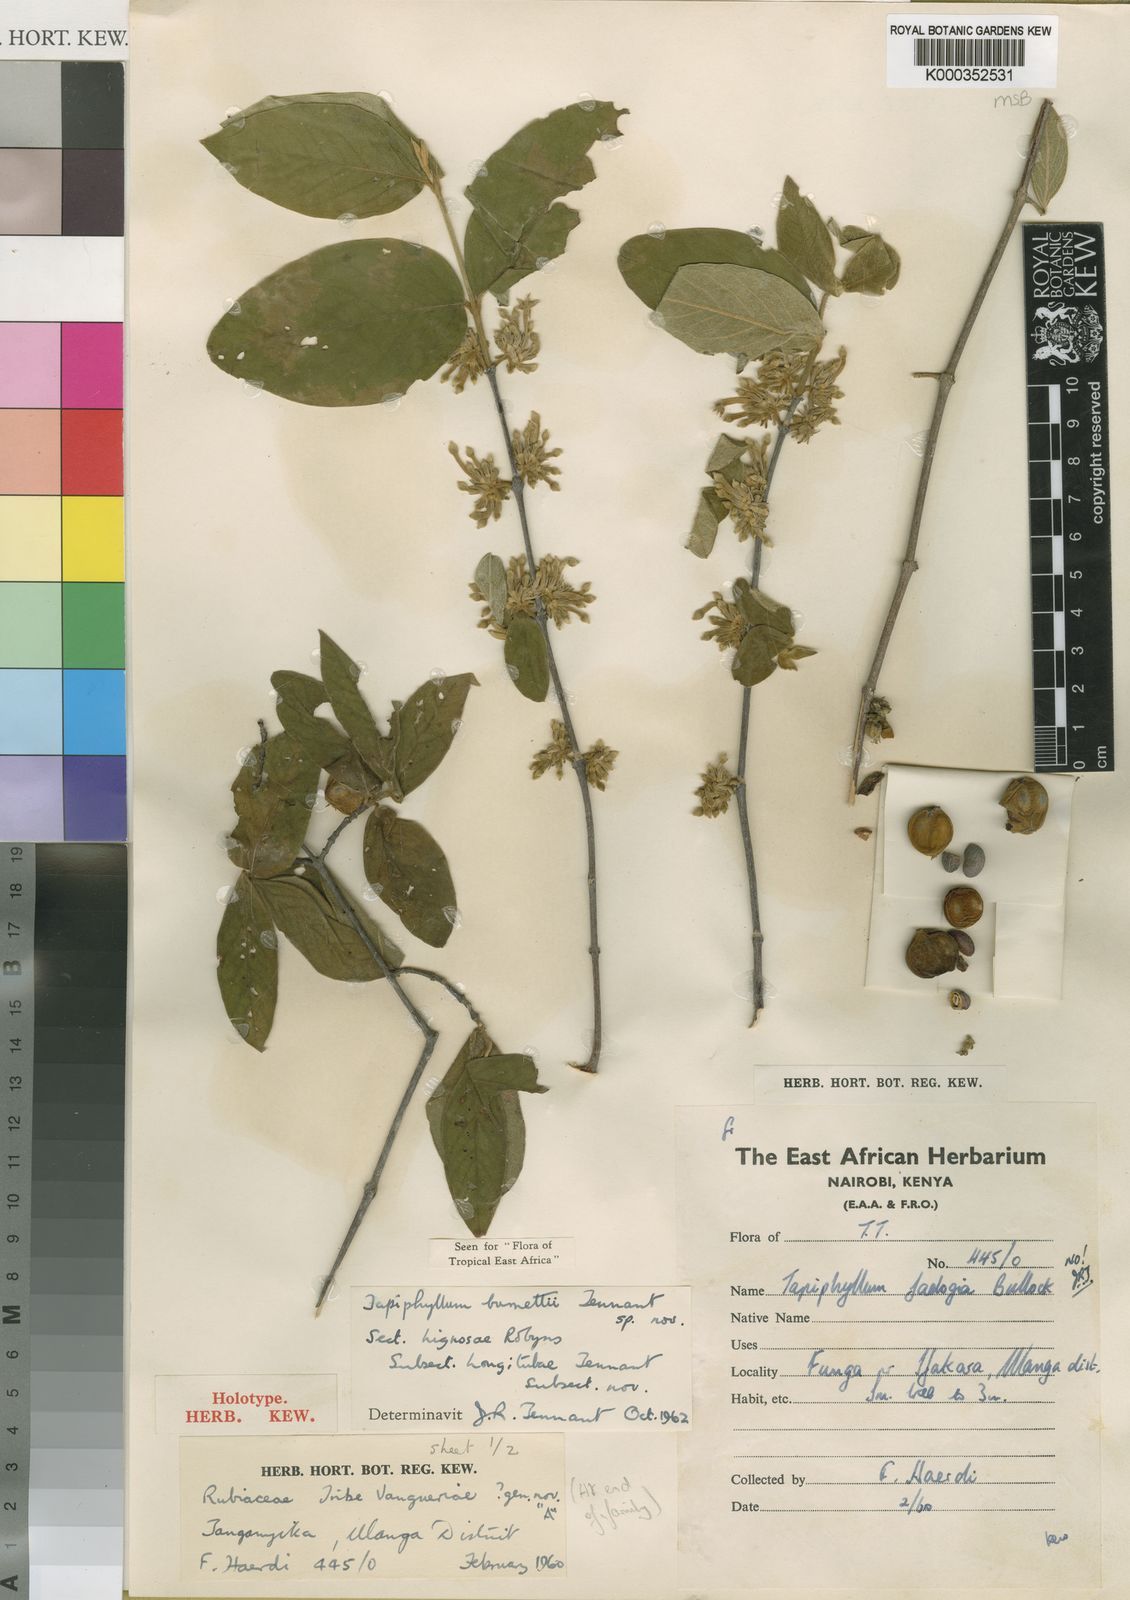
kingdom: Plantae
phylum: Tracheophyta
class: Magnoliopsida
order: Gentianales
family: Rubiaceae
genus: Vangueria
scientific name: Vangueria burnettii
